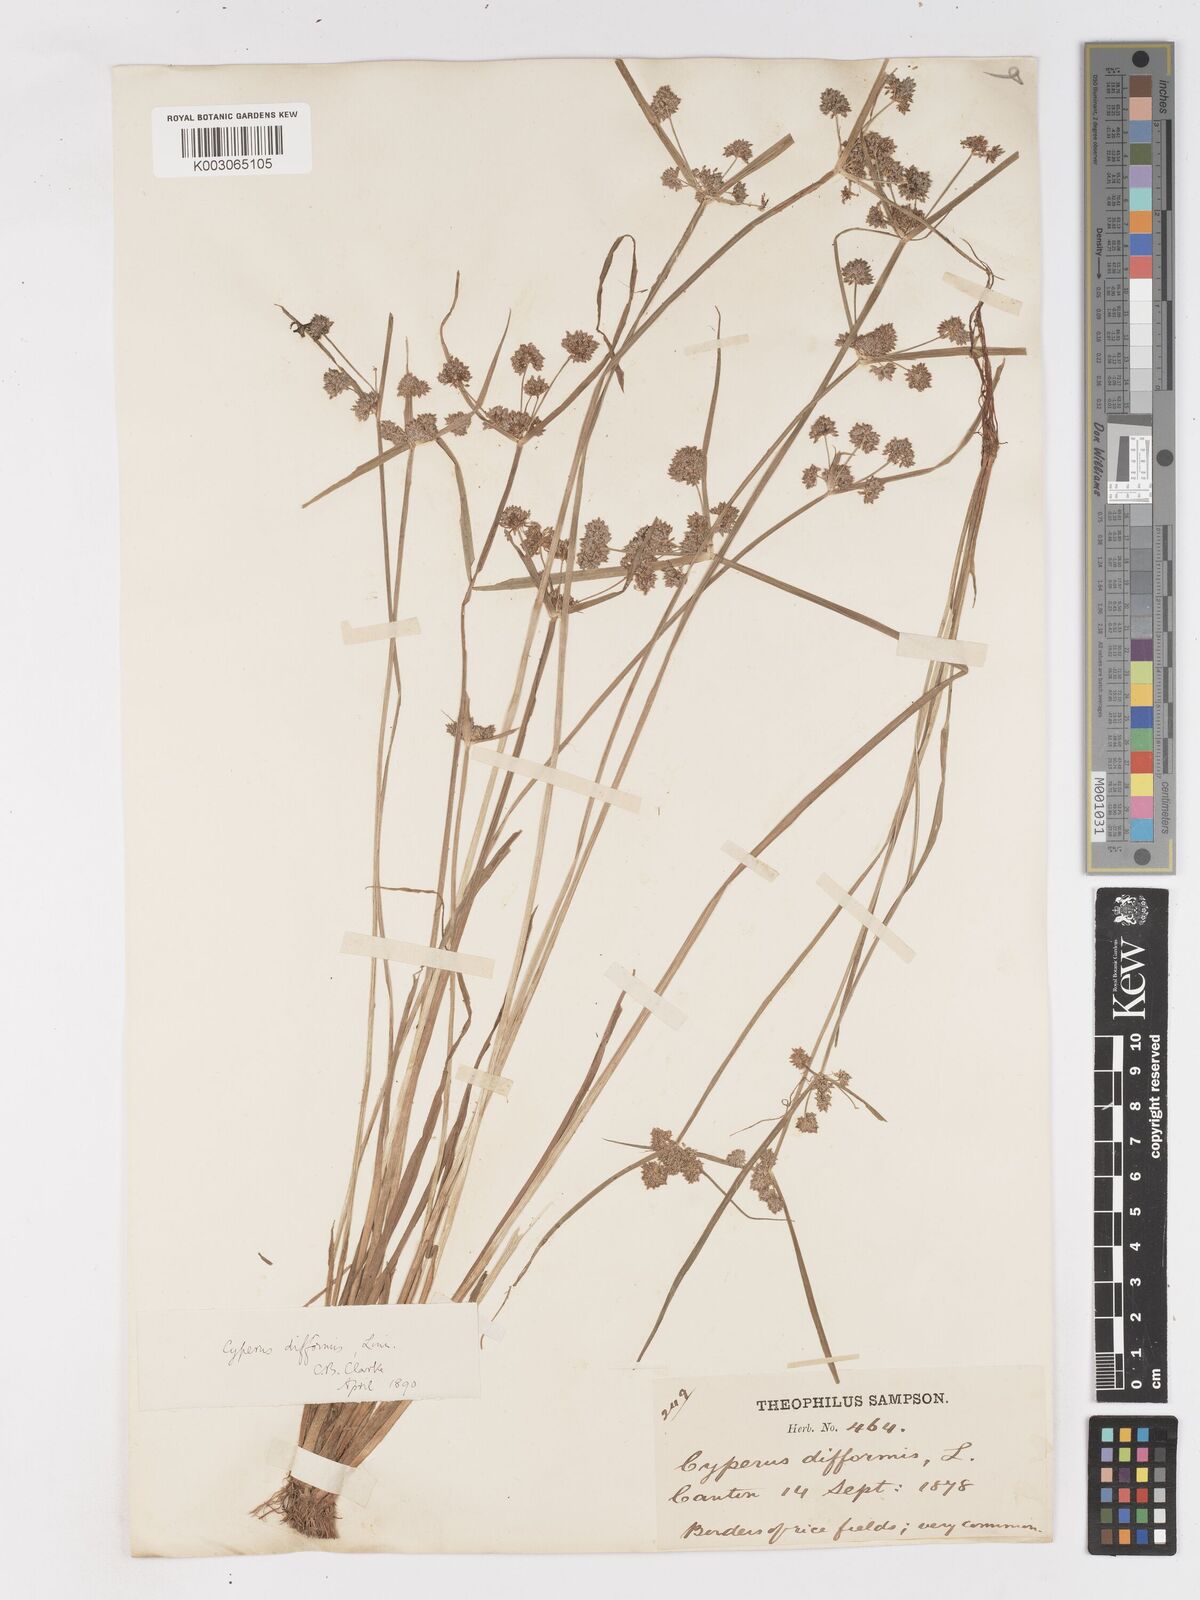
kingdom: Plantae
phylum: Tracheophyta
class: Liliopsida
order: Poales
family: Cyperaceae
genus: Cyperus
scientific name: Cyperus difformis
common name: Variable flatsedge
